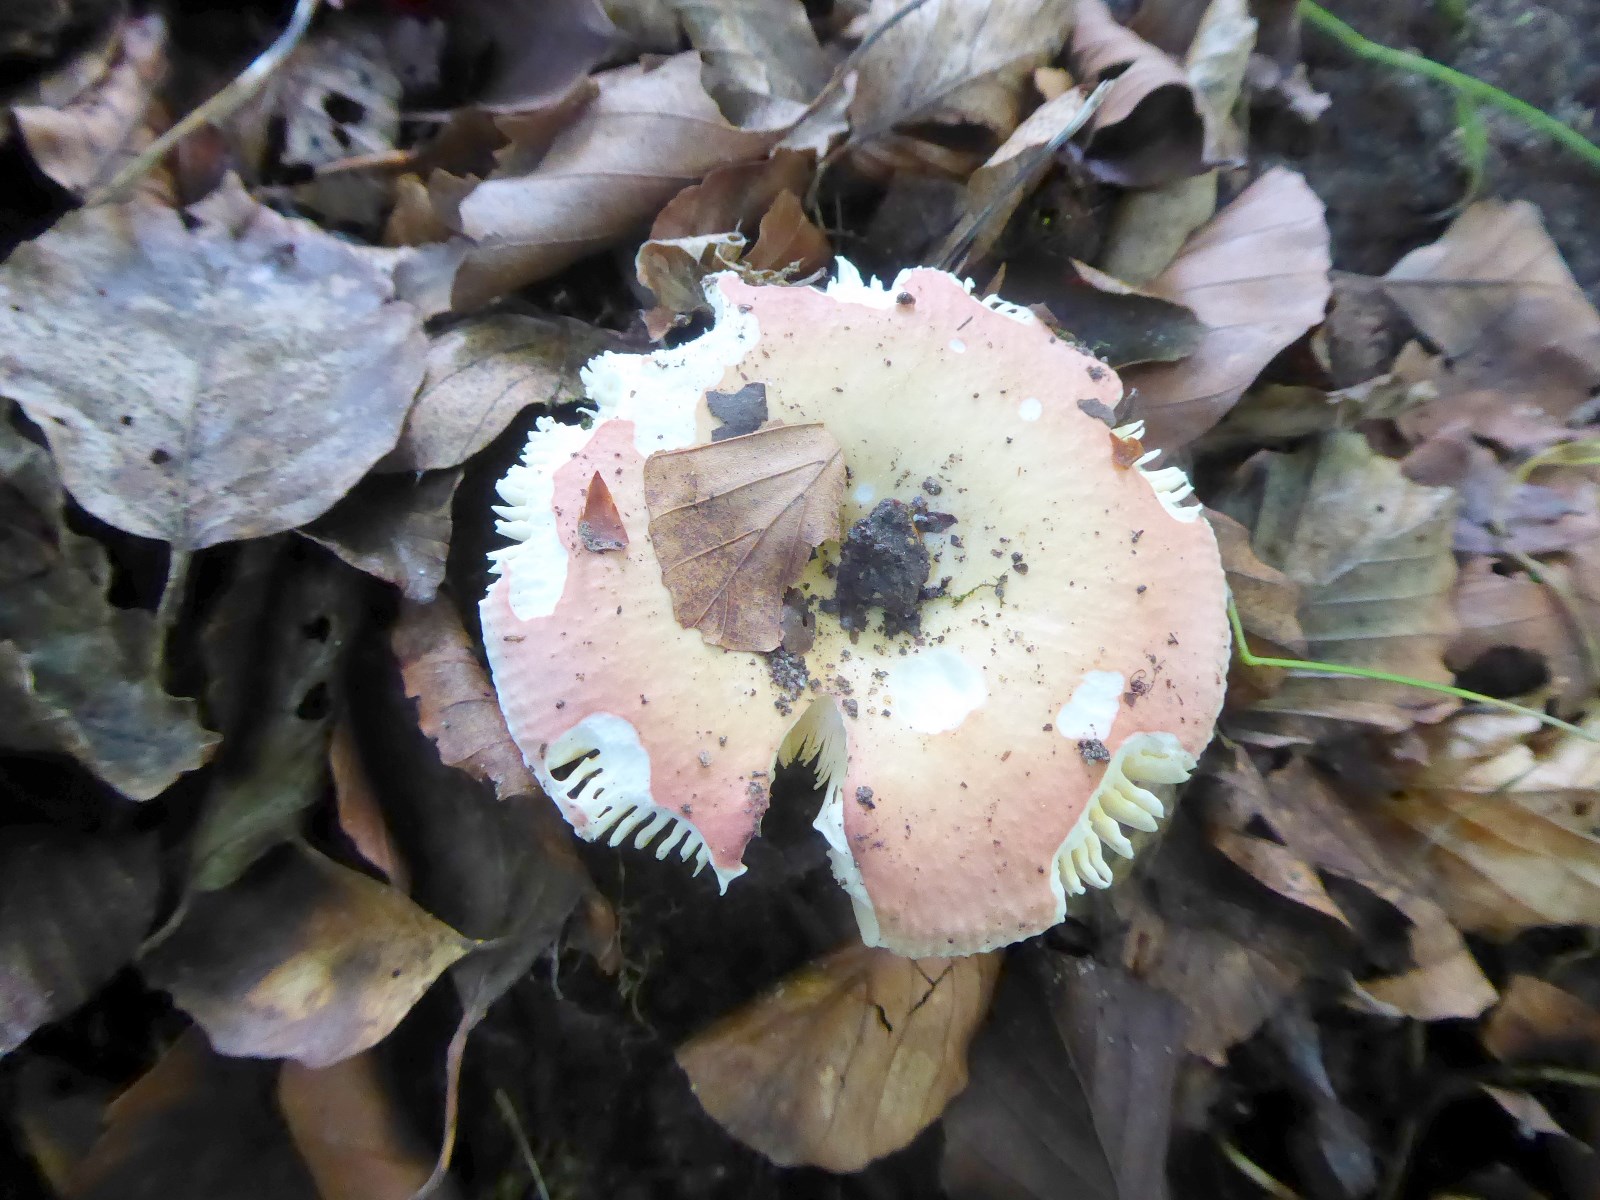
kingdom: Fungi
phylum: Basidiomycota
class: Agaricomycetes
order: Russulales
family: Russulaceae
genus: Russula
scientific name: Russula veternosa
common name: blødkødet skørhat
